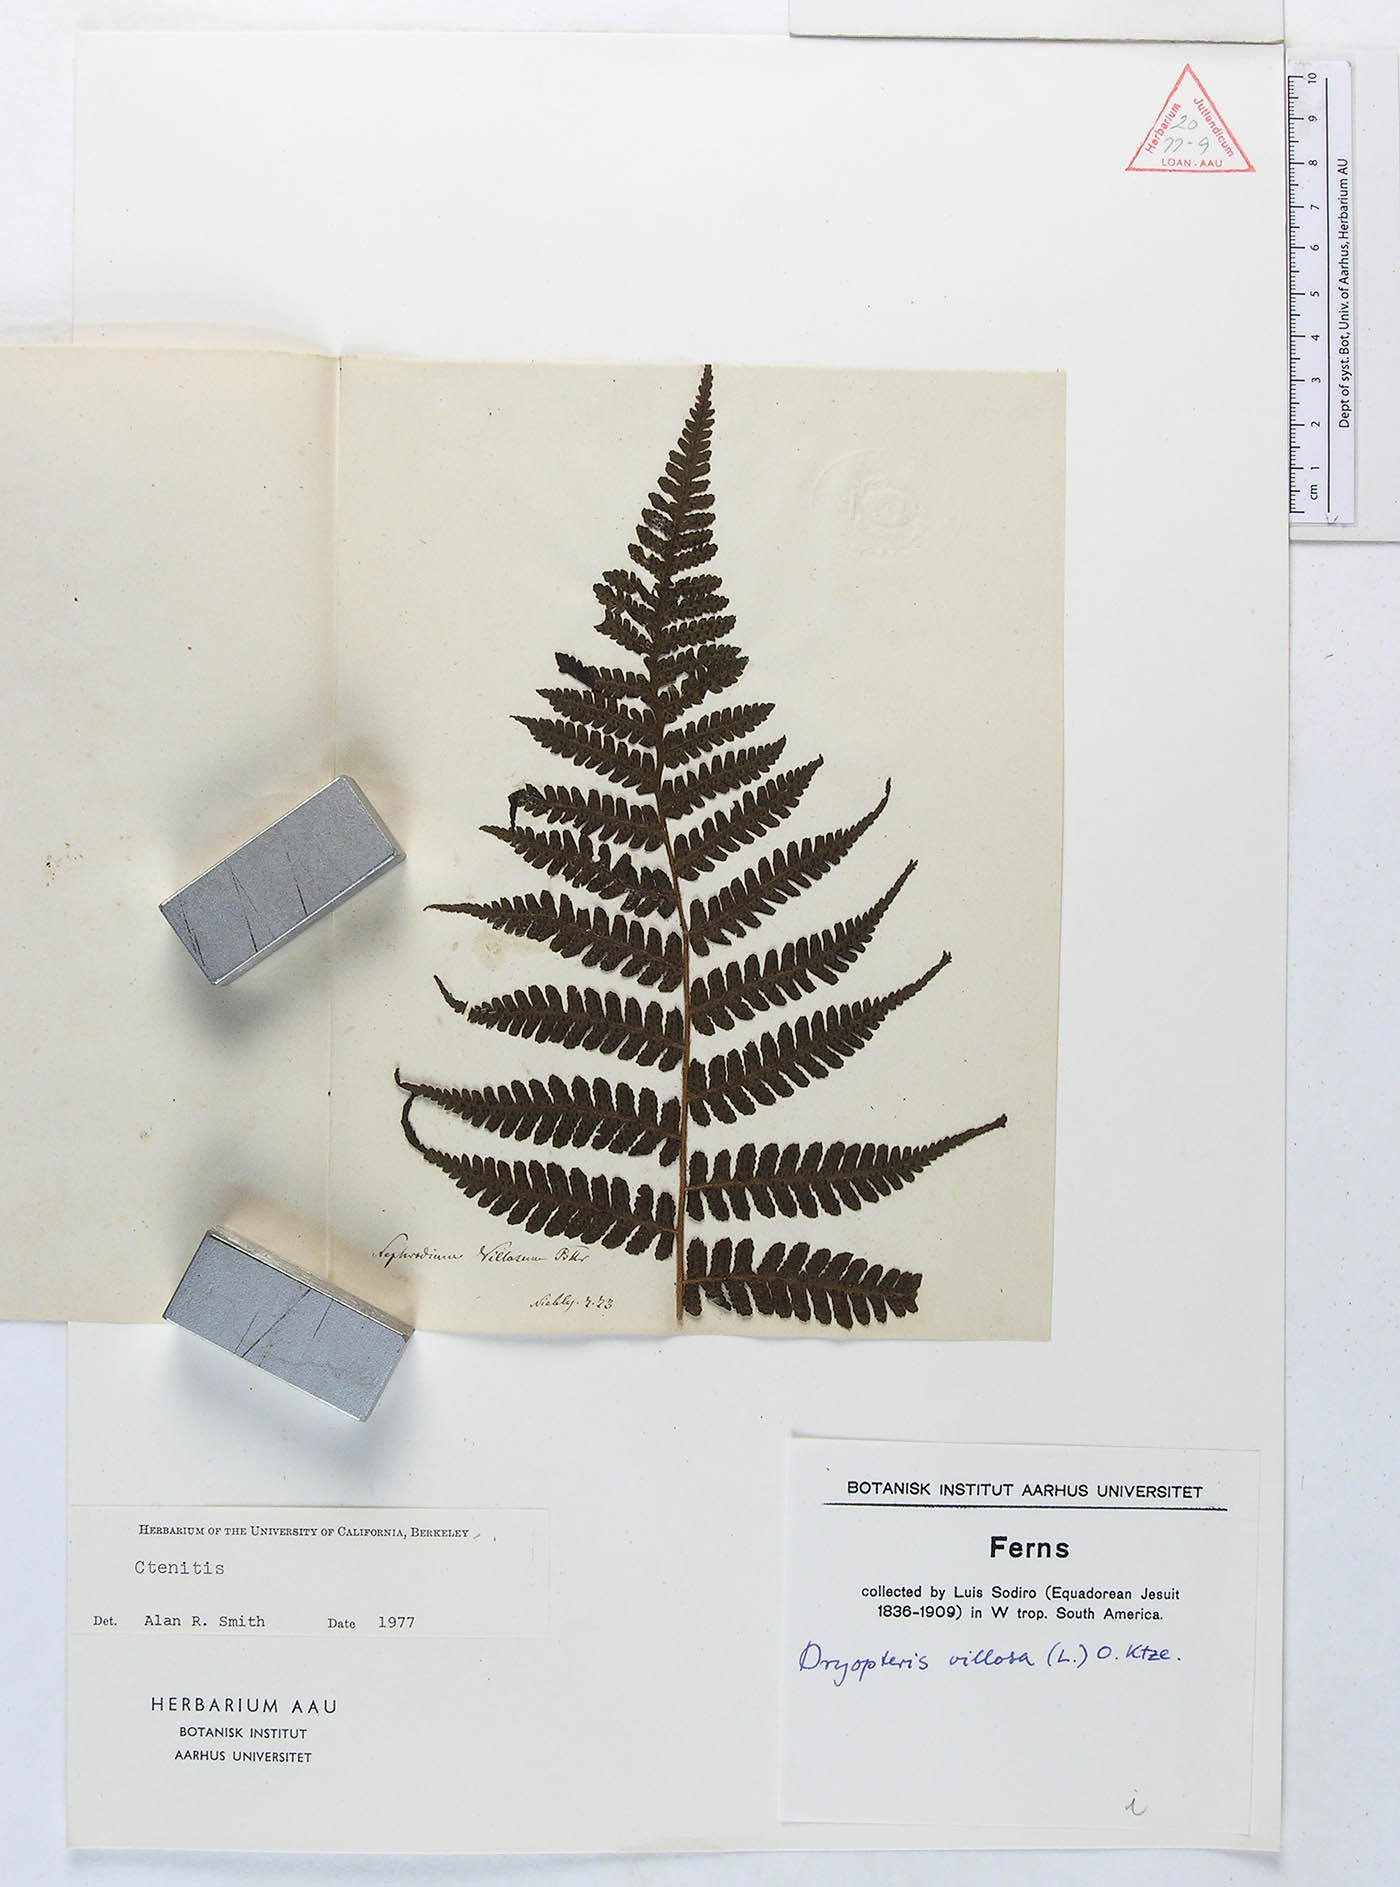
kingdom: Plantae
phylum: Tracheophyta
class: Polypodiopsida
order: Polypodiales
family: Dryopteridaceae
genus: Megalastrum
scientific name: Megalastrum fugaceum
